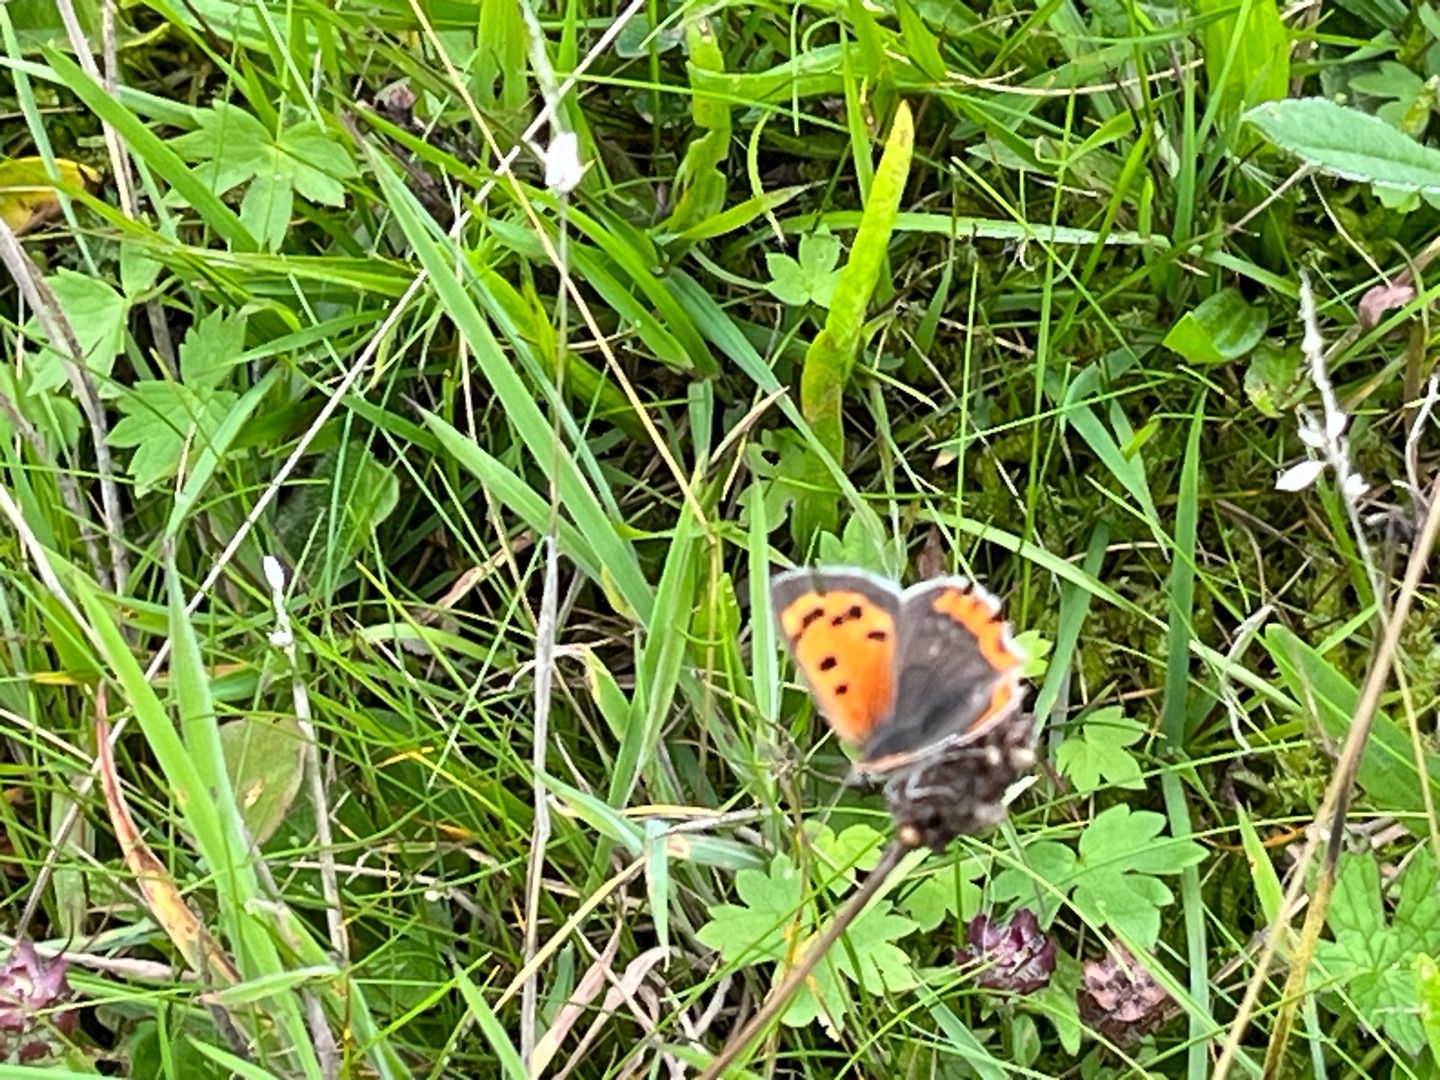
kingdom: Animalia
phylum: Arthropoda
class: Insecta
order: Lepidoptera
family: Lycaenidae
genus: Lycaena
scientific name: Lycaena phlaeas
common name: Lille ildfugl
